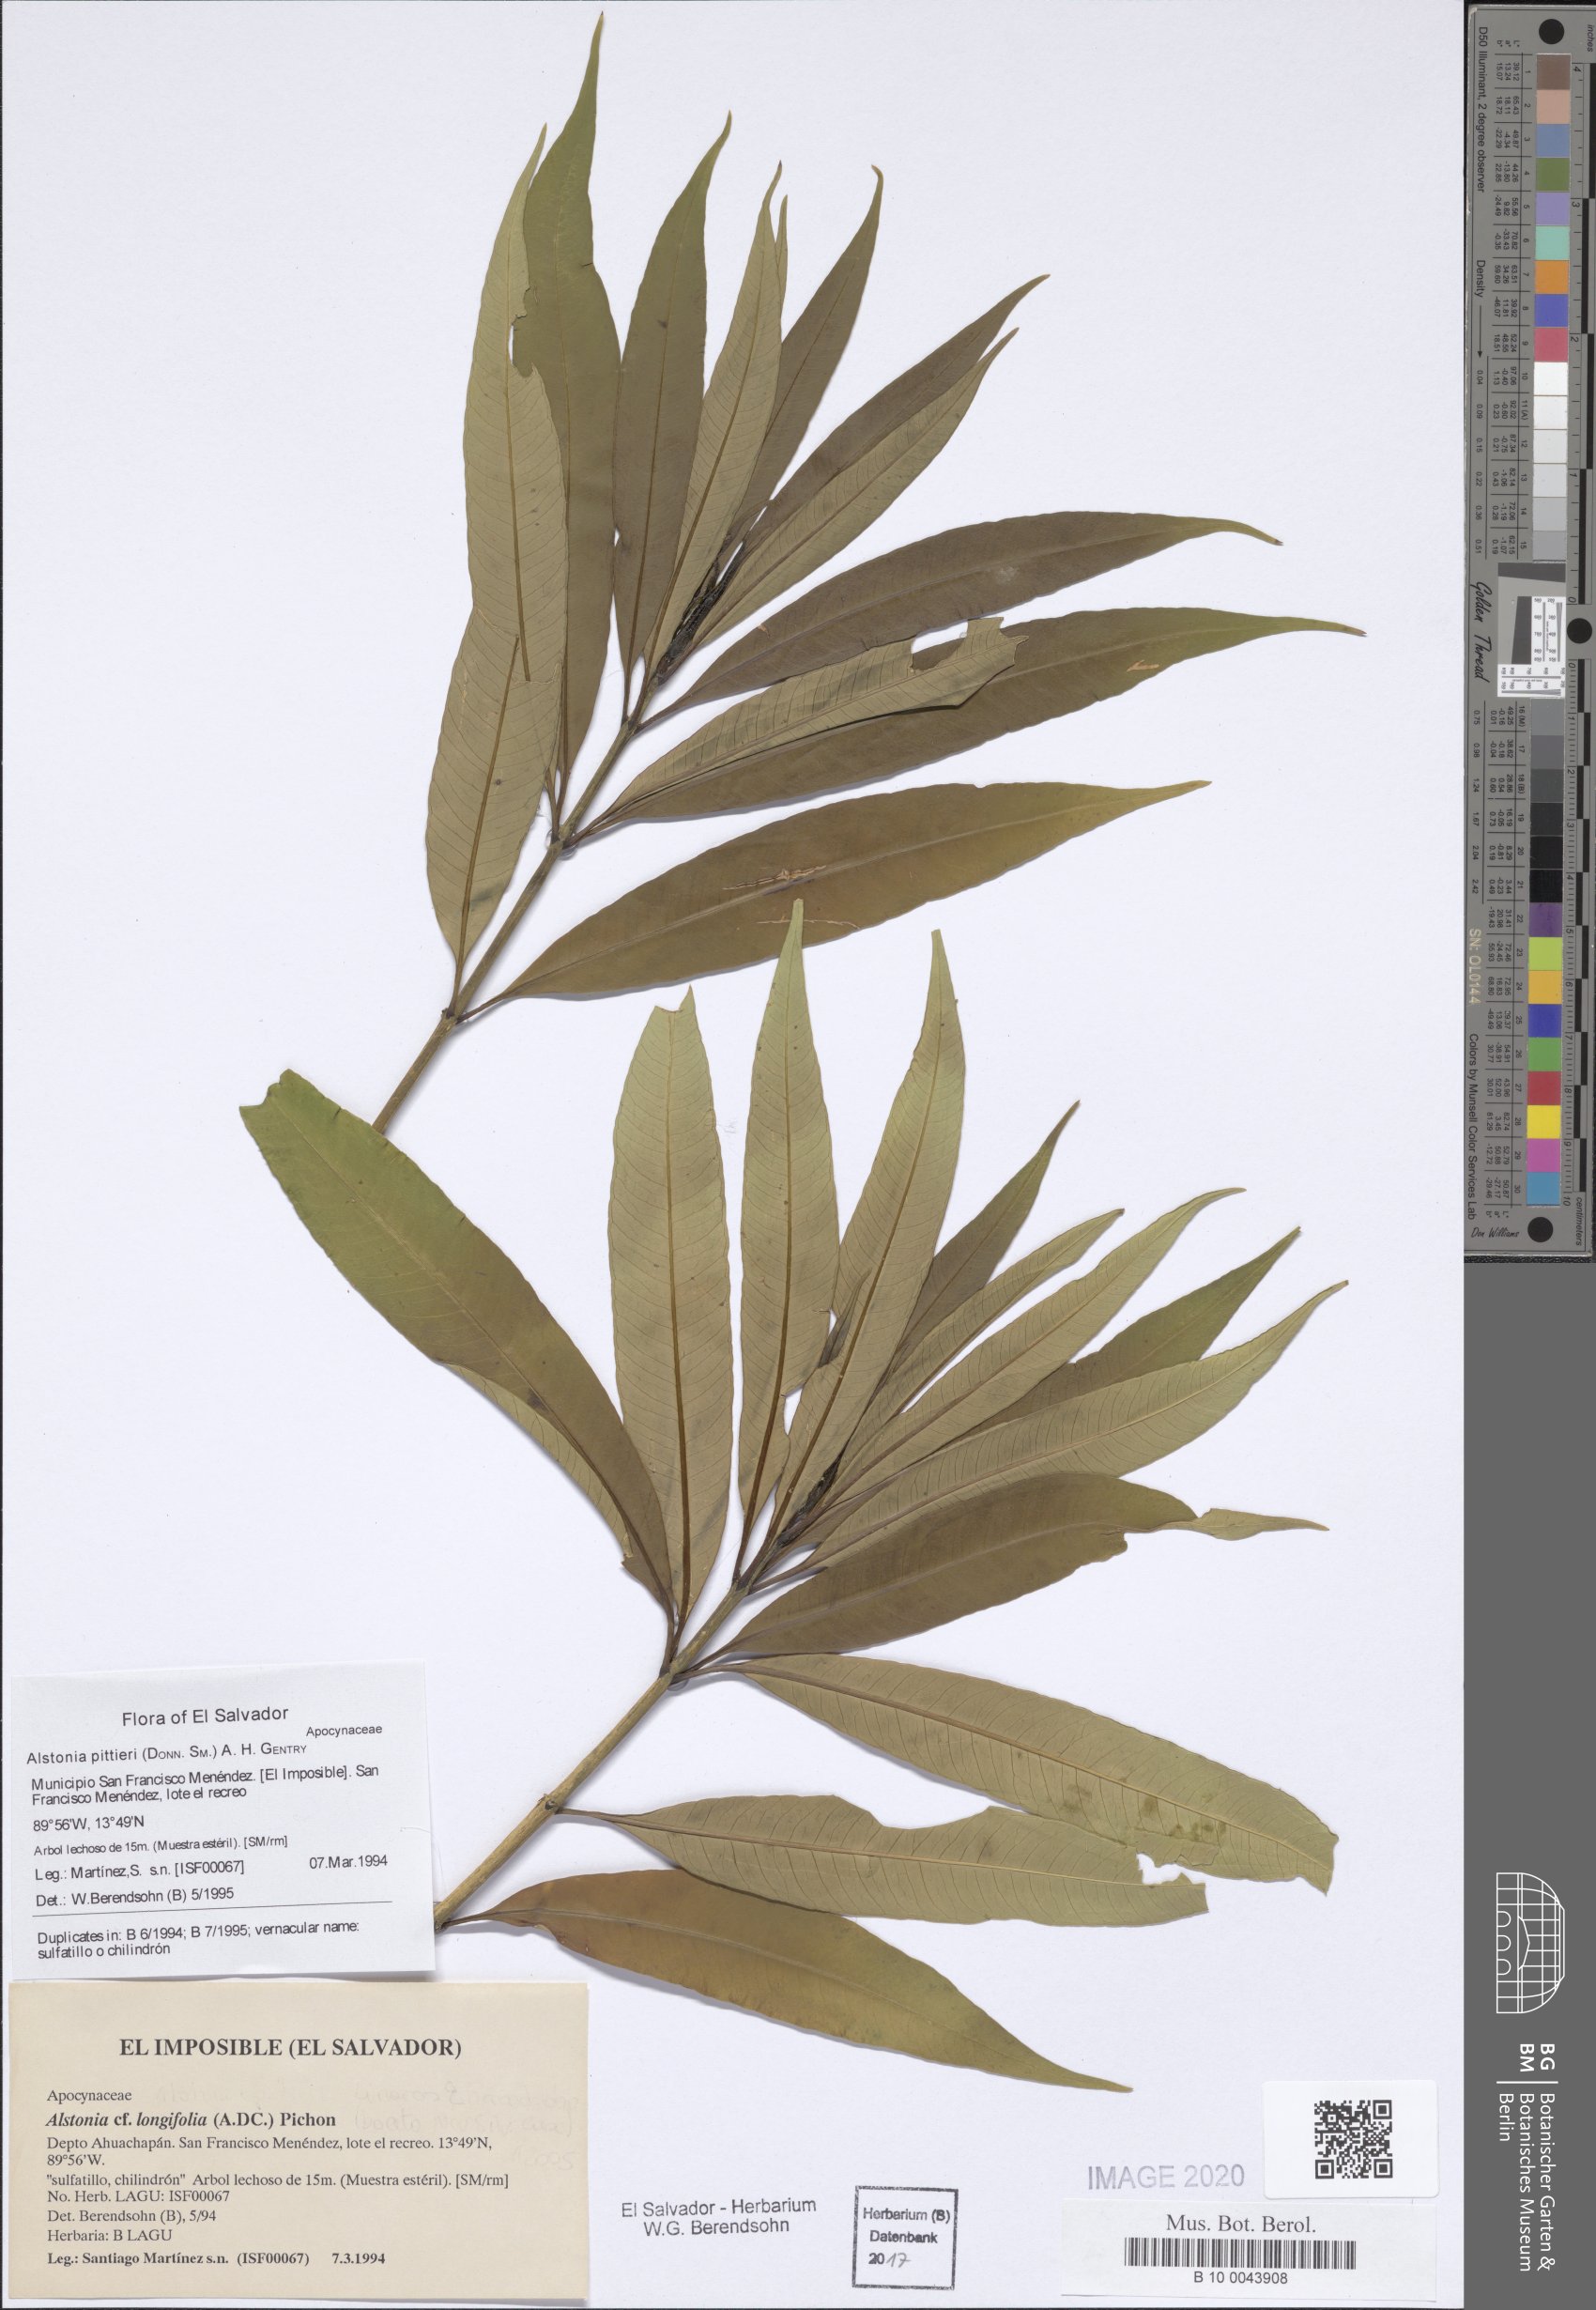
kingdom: Plantae
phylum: Tracheophyta
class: Magnoliopsida
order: Gentianales
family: Apocynaceae
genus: Tonduzia
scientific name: Tonduzia longifolia
